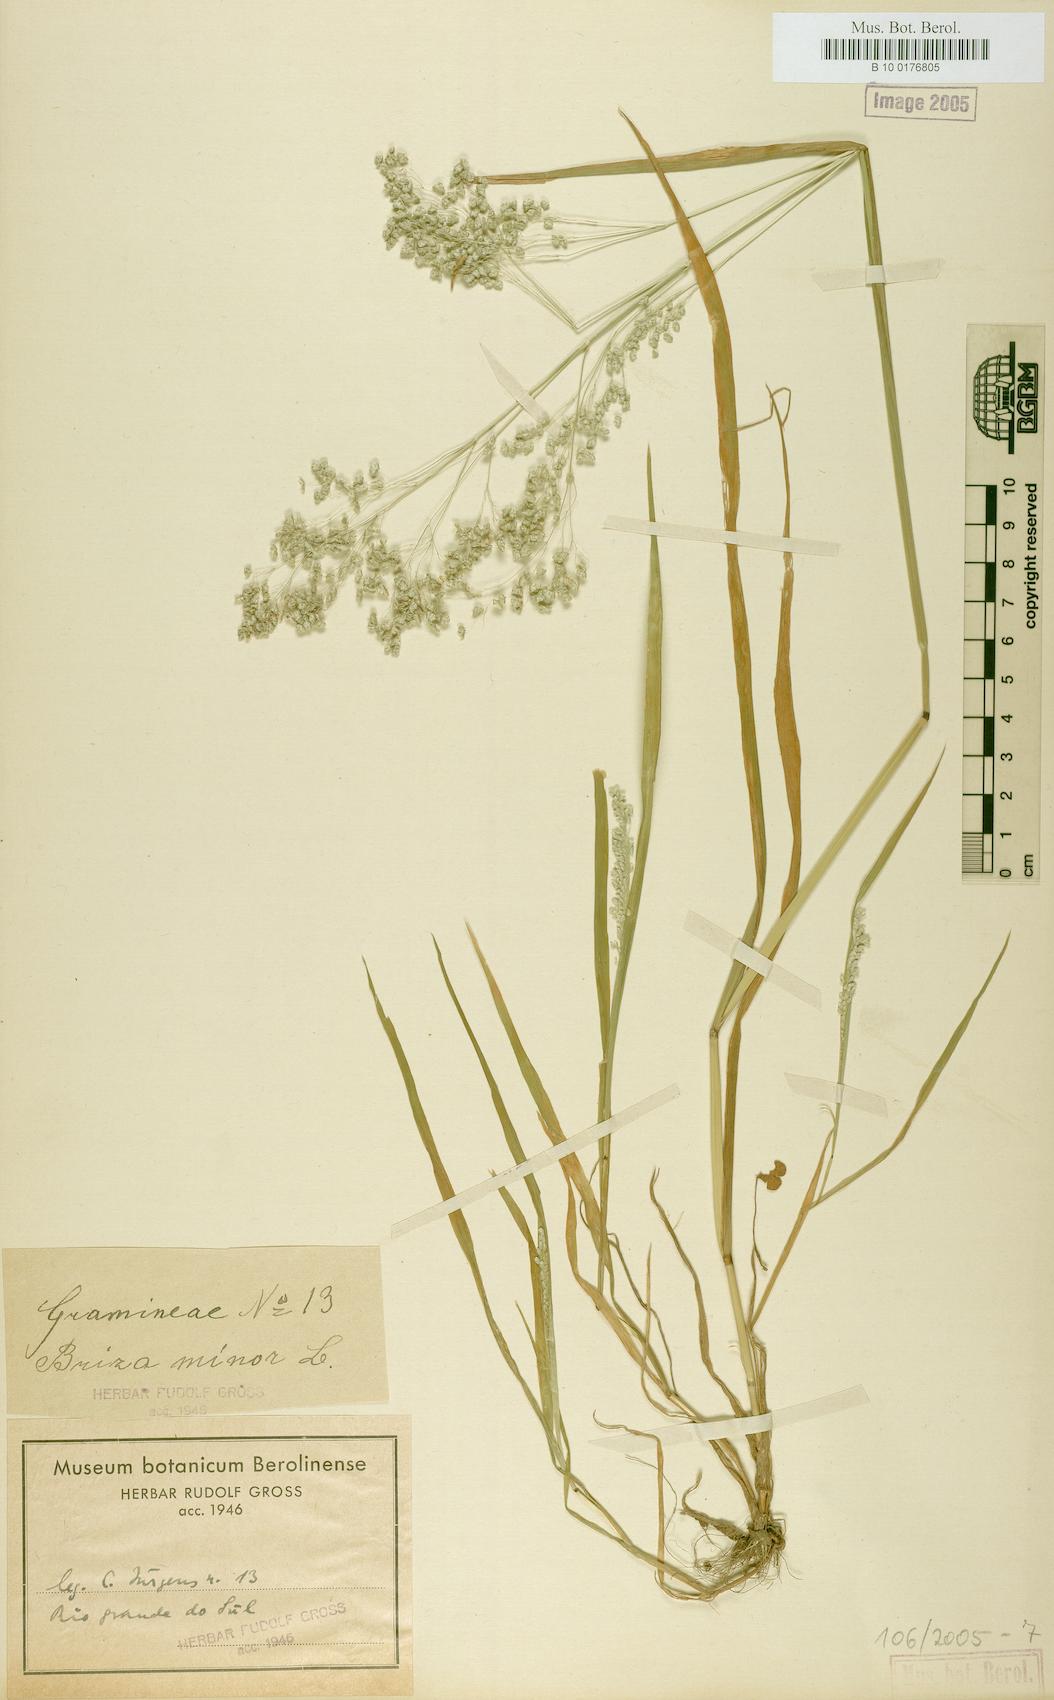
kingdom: Plantae
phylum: Tracheophyta
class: Liliopsida
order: Poales
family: Poaceae
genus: Briza
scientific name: Briza minor
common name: Lesser quaking-grass
